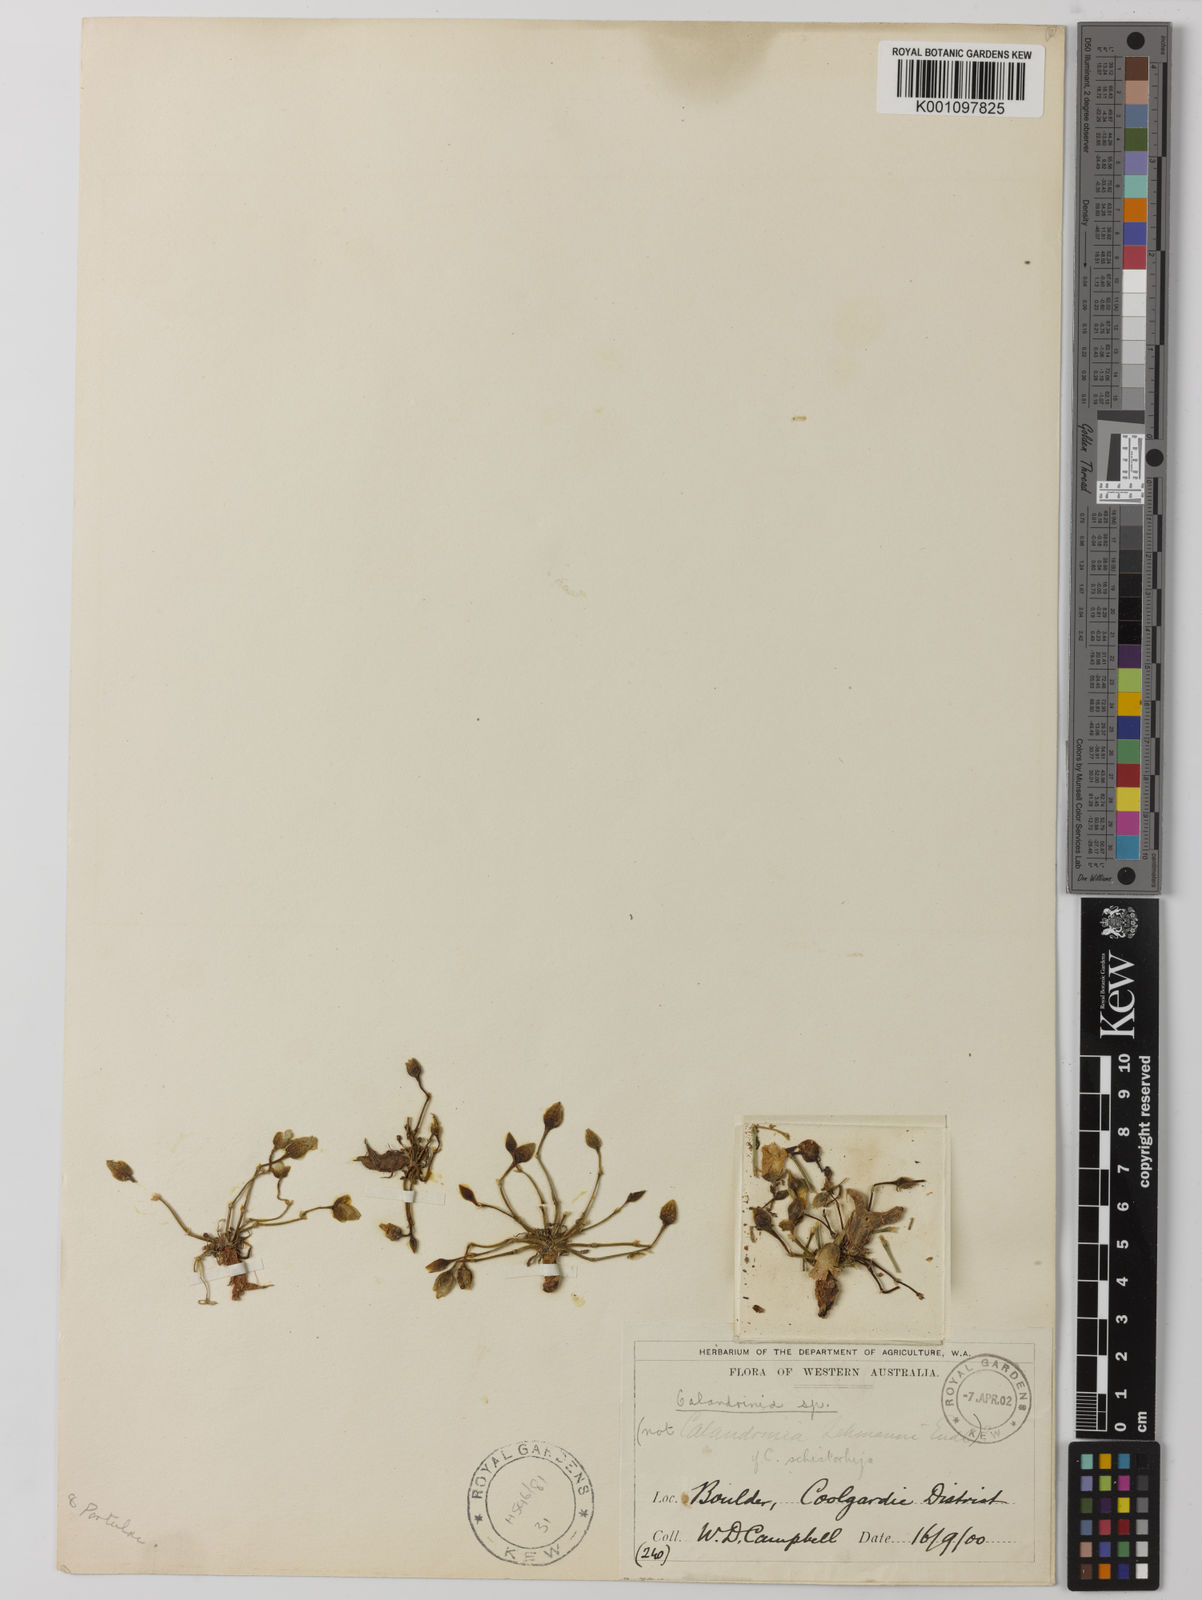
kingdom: Plantae
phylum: Tracheophyta
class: Magnoliopsida
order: Caryophyllales
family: Montiaceae
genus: Rumicastrum
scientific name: Rumicastrum schistorhizum
